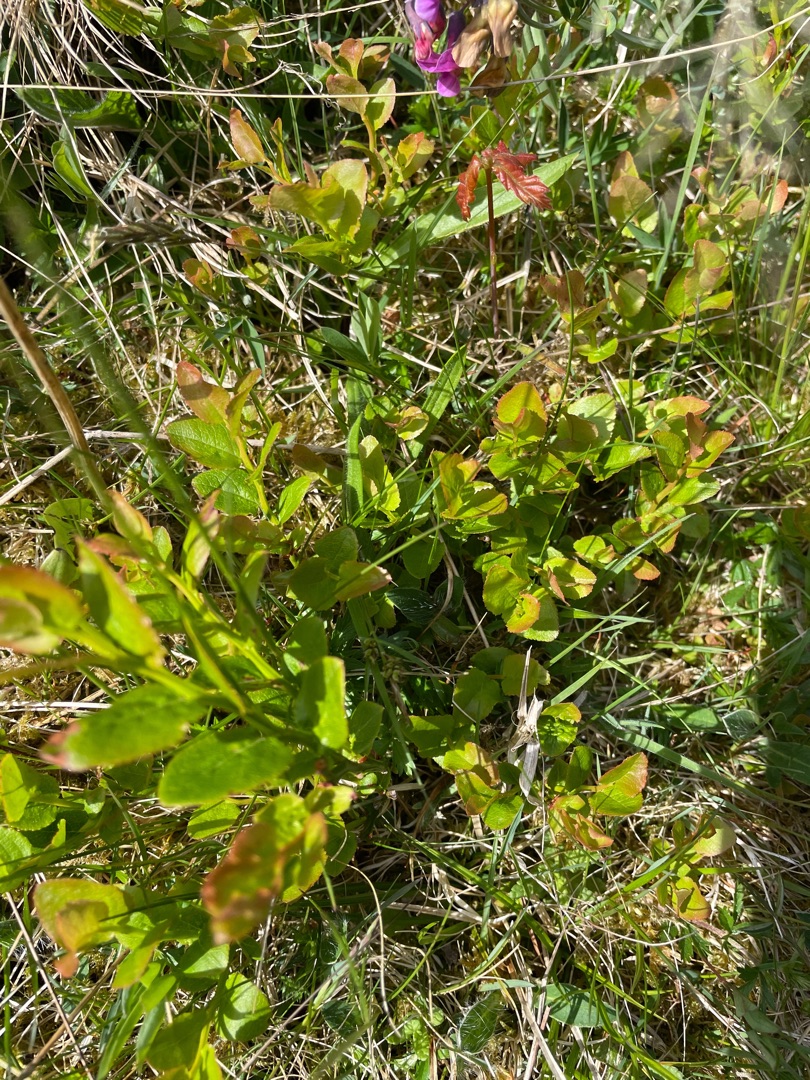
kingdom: Plantae
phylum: Tracheophyta
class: Magnoliopsida
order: Ericales
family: Ericaceae
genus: Vaccinium
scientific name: Vaccinium myrtillus
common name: Blåbær
